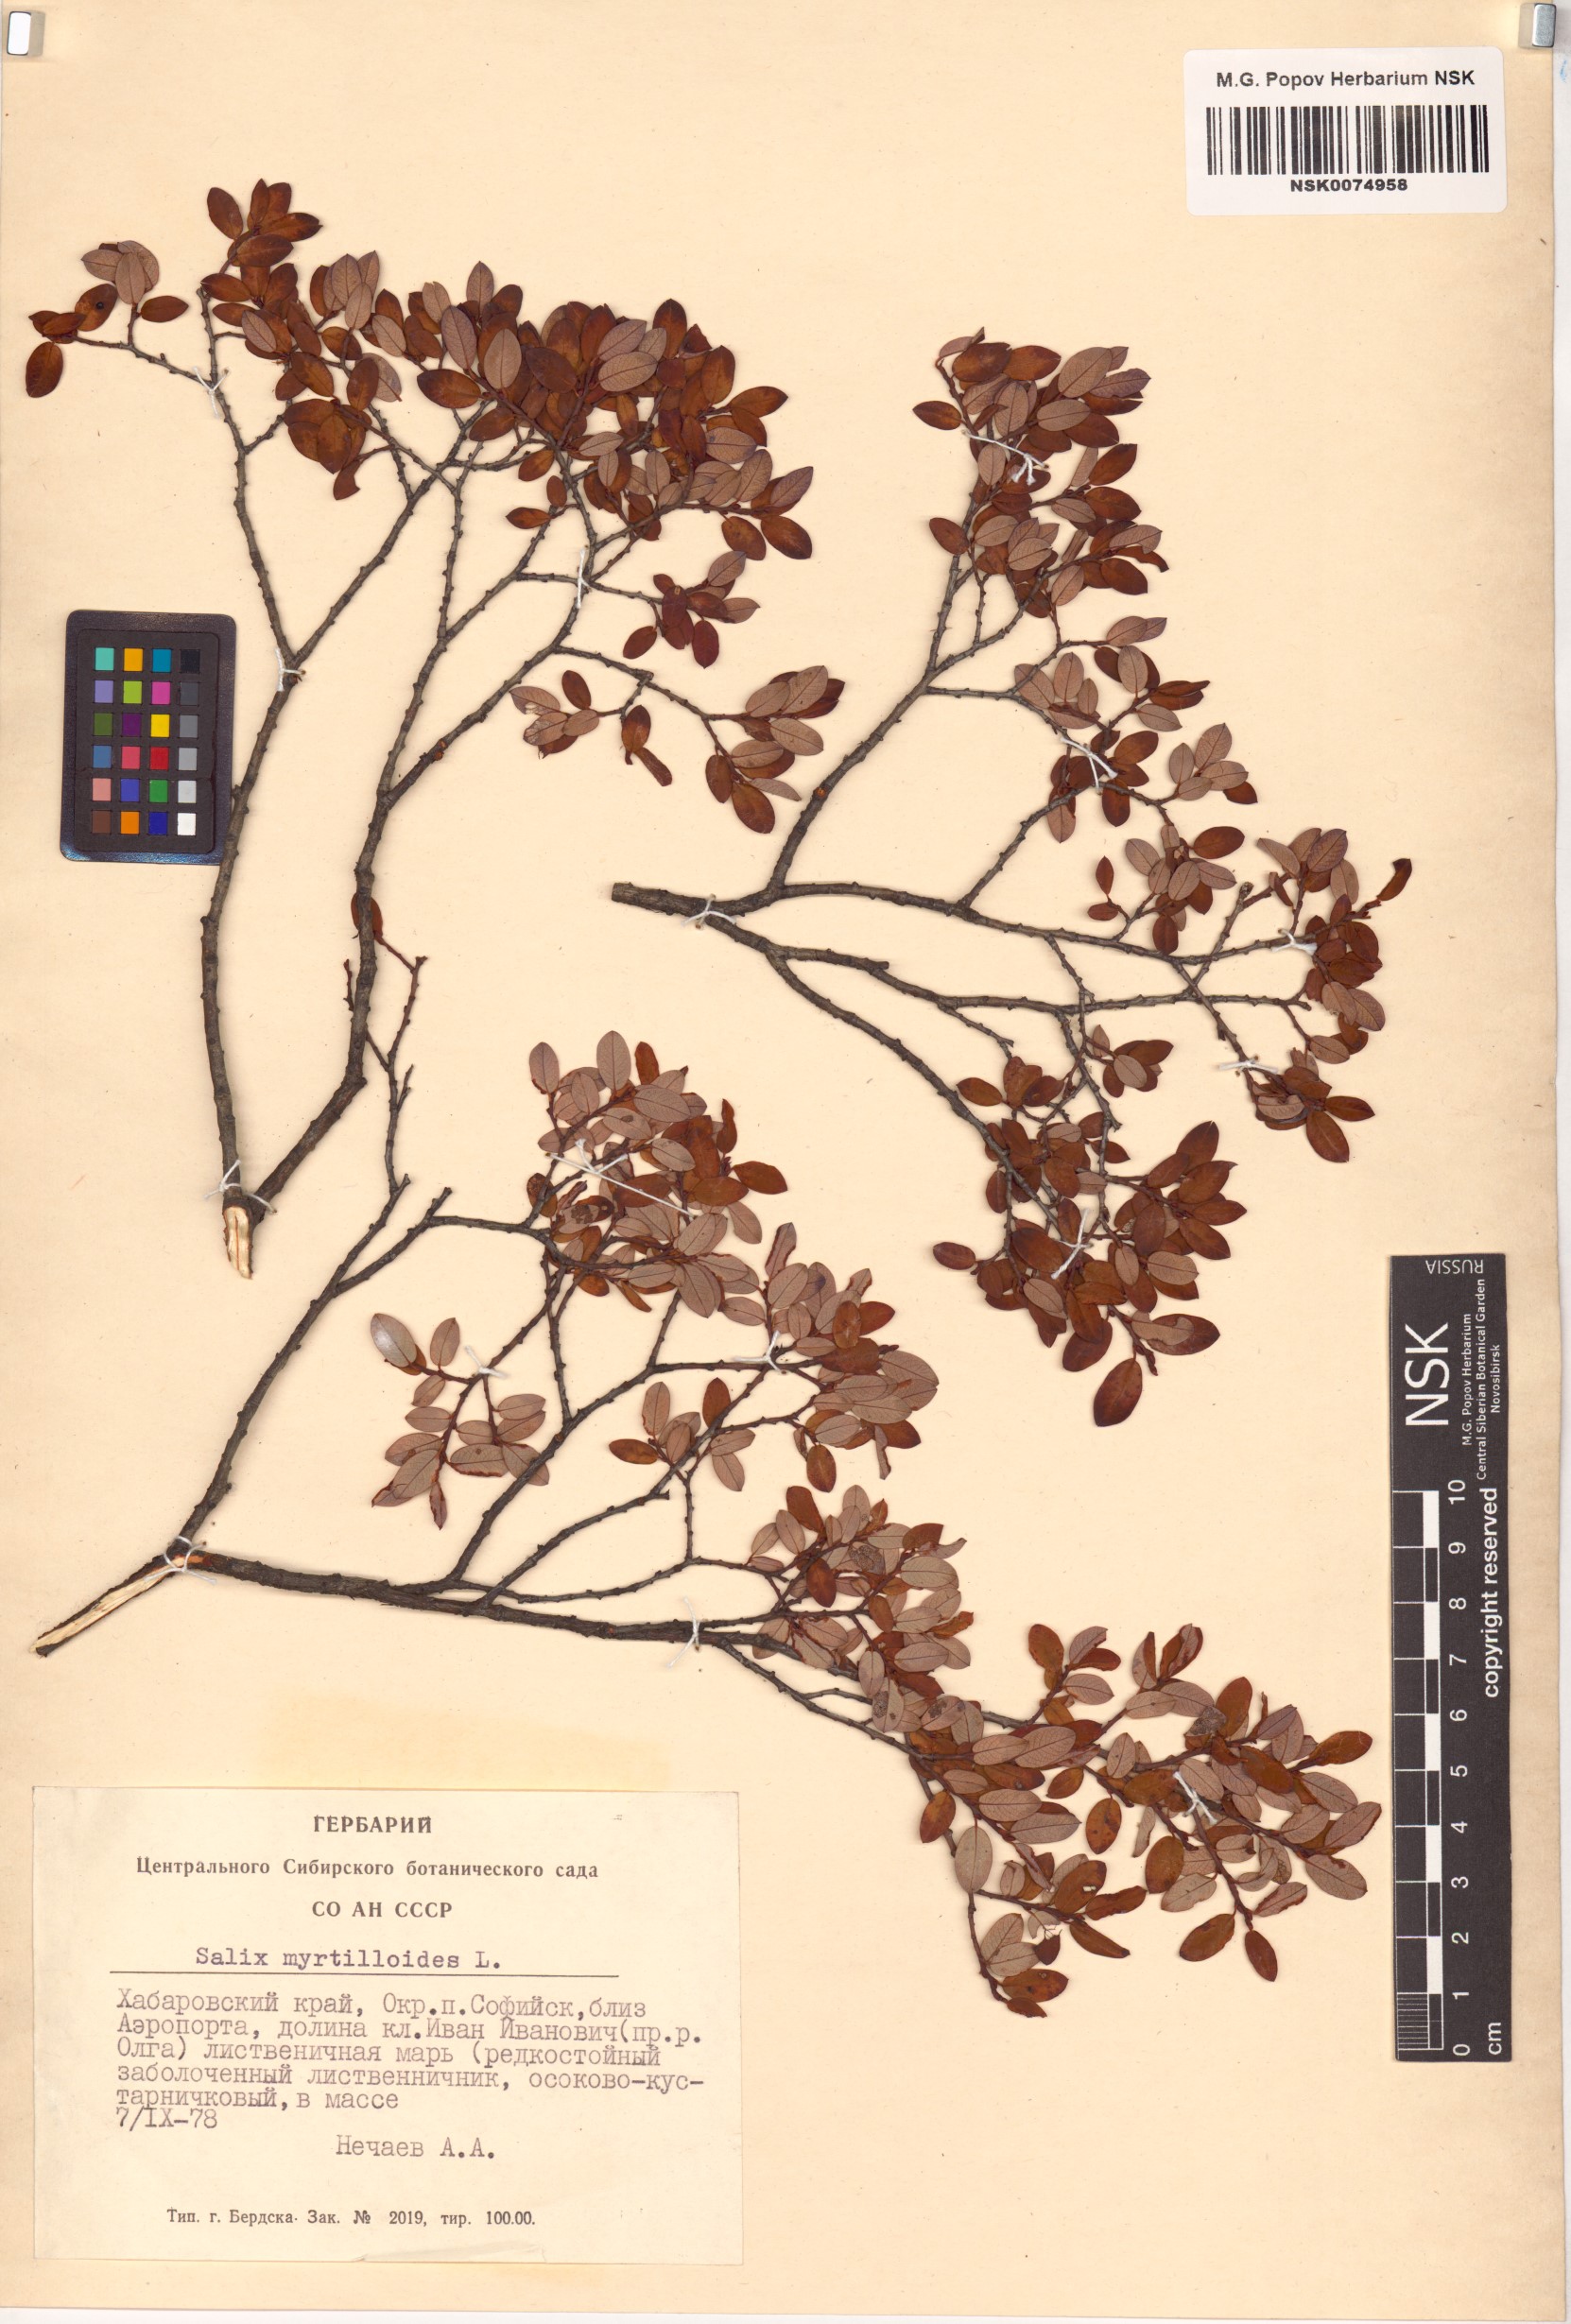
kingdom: Plantae
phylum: Tracheophyta
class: Magnoliopsida
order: Malpighiales
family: Salicaceae
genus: Salix
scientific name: Salix myrtilloides
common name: Myrtle-leaved willow
